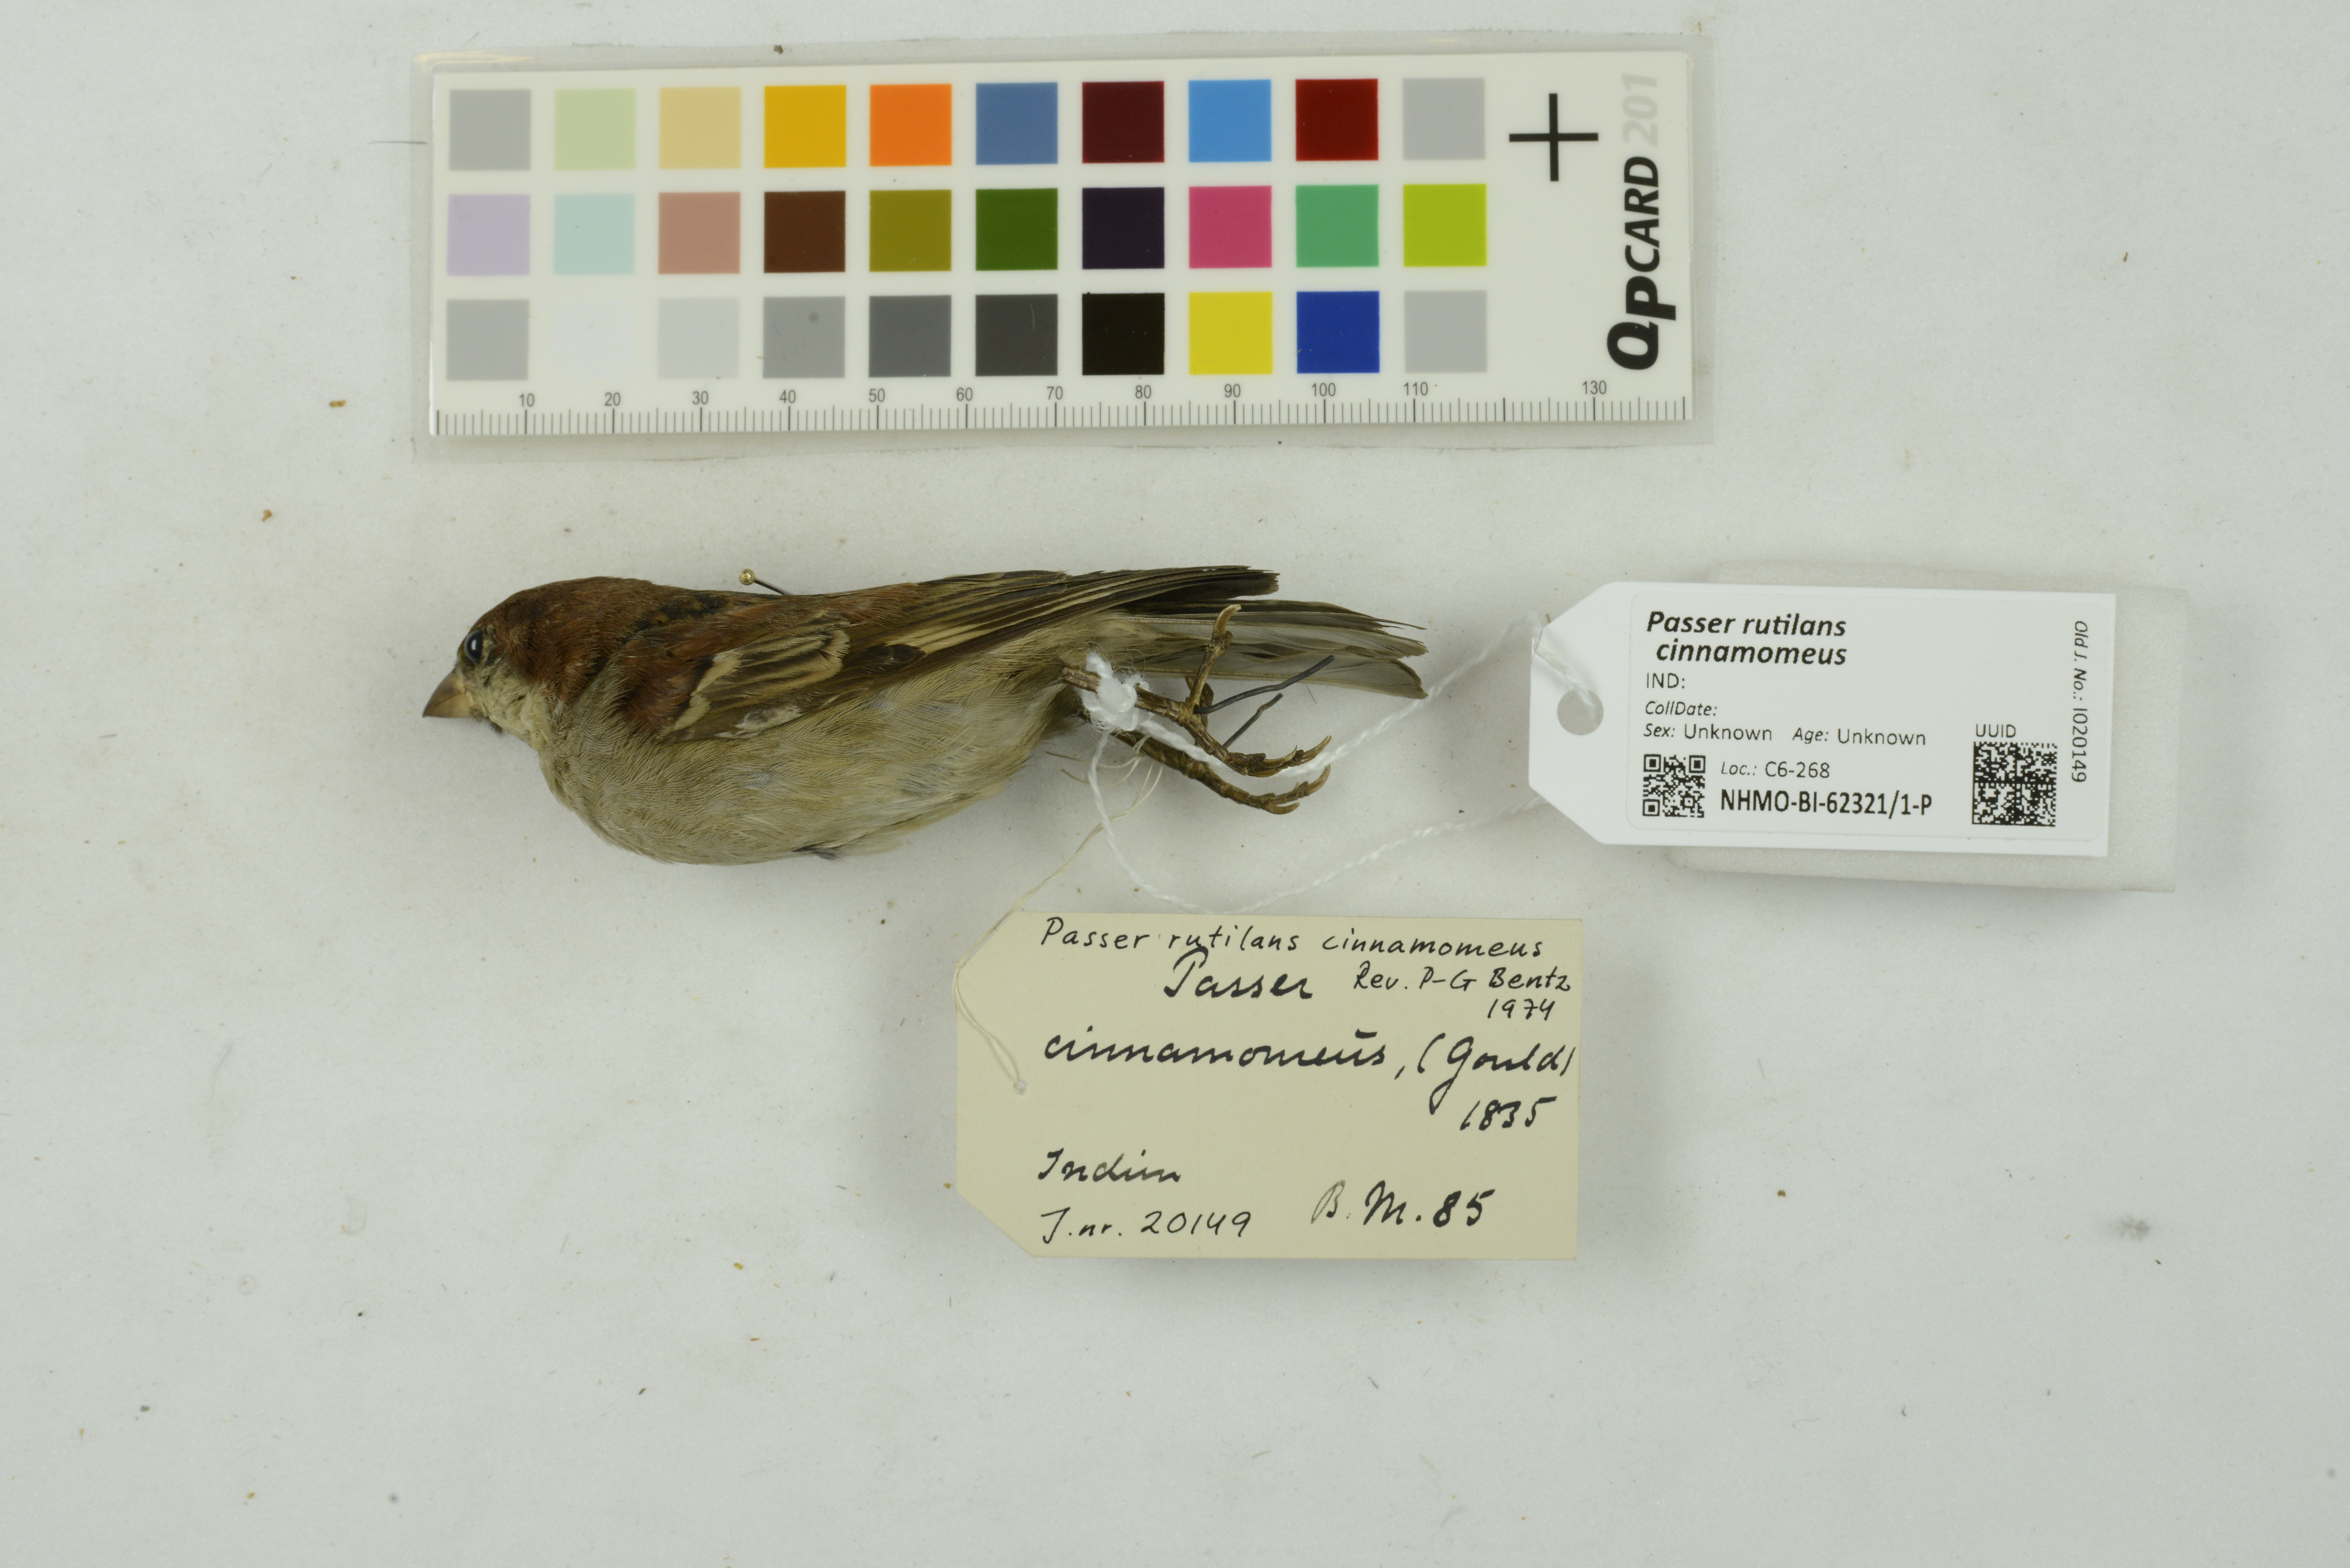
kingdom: Animalia
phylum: Chordata
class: Aves
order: Passeriformes
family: Passeridae
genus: Passer
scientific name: Passer rutilans
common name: Russet sparrow
